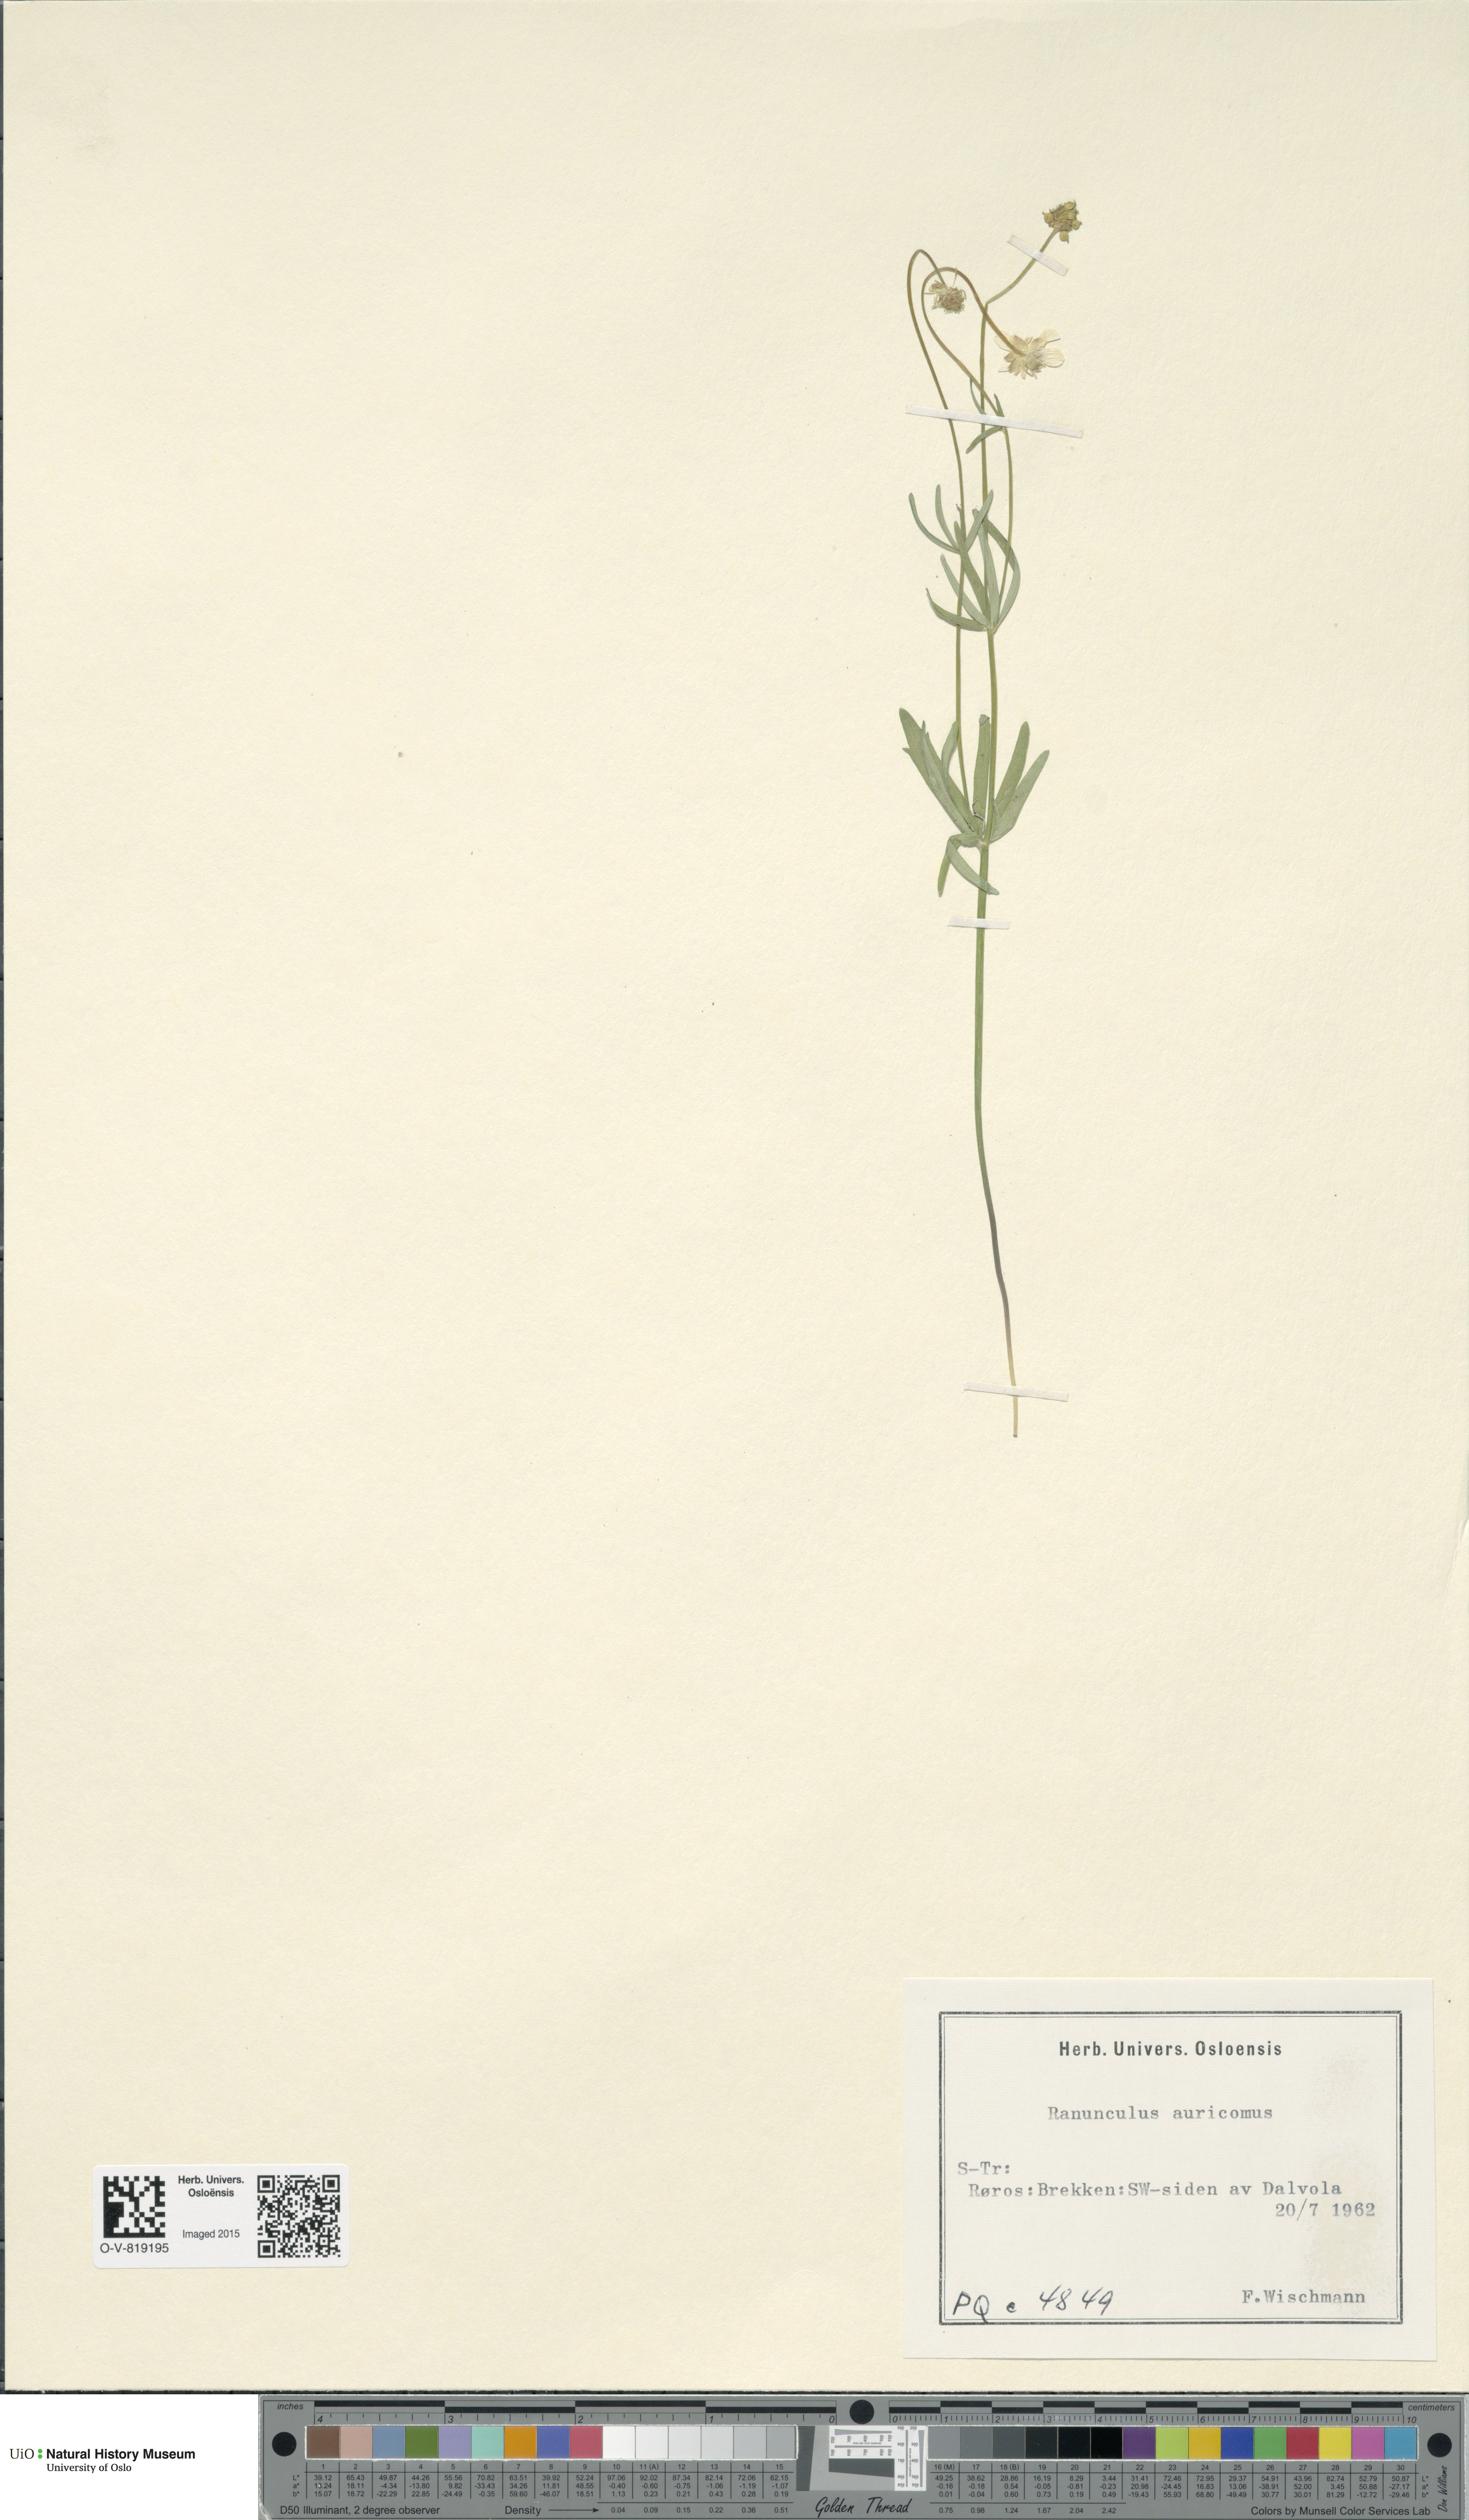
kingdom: Plantae
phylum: Tracheophyta
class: Magnoliopsida
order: Ranunculales
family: Ranunculaceae
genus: Ranunculus
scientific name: Ranunculus auricomus
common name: Goldilocks buttercup
